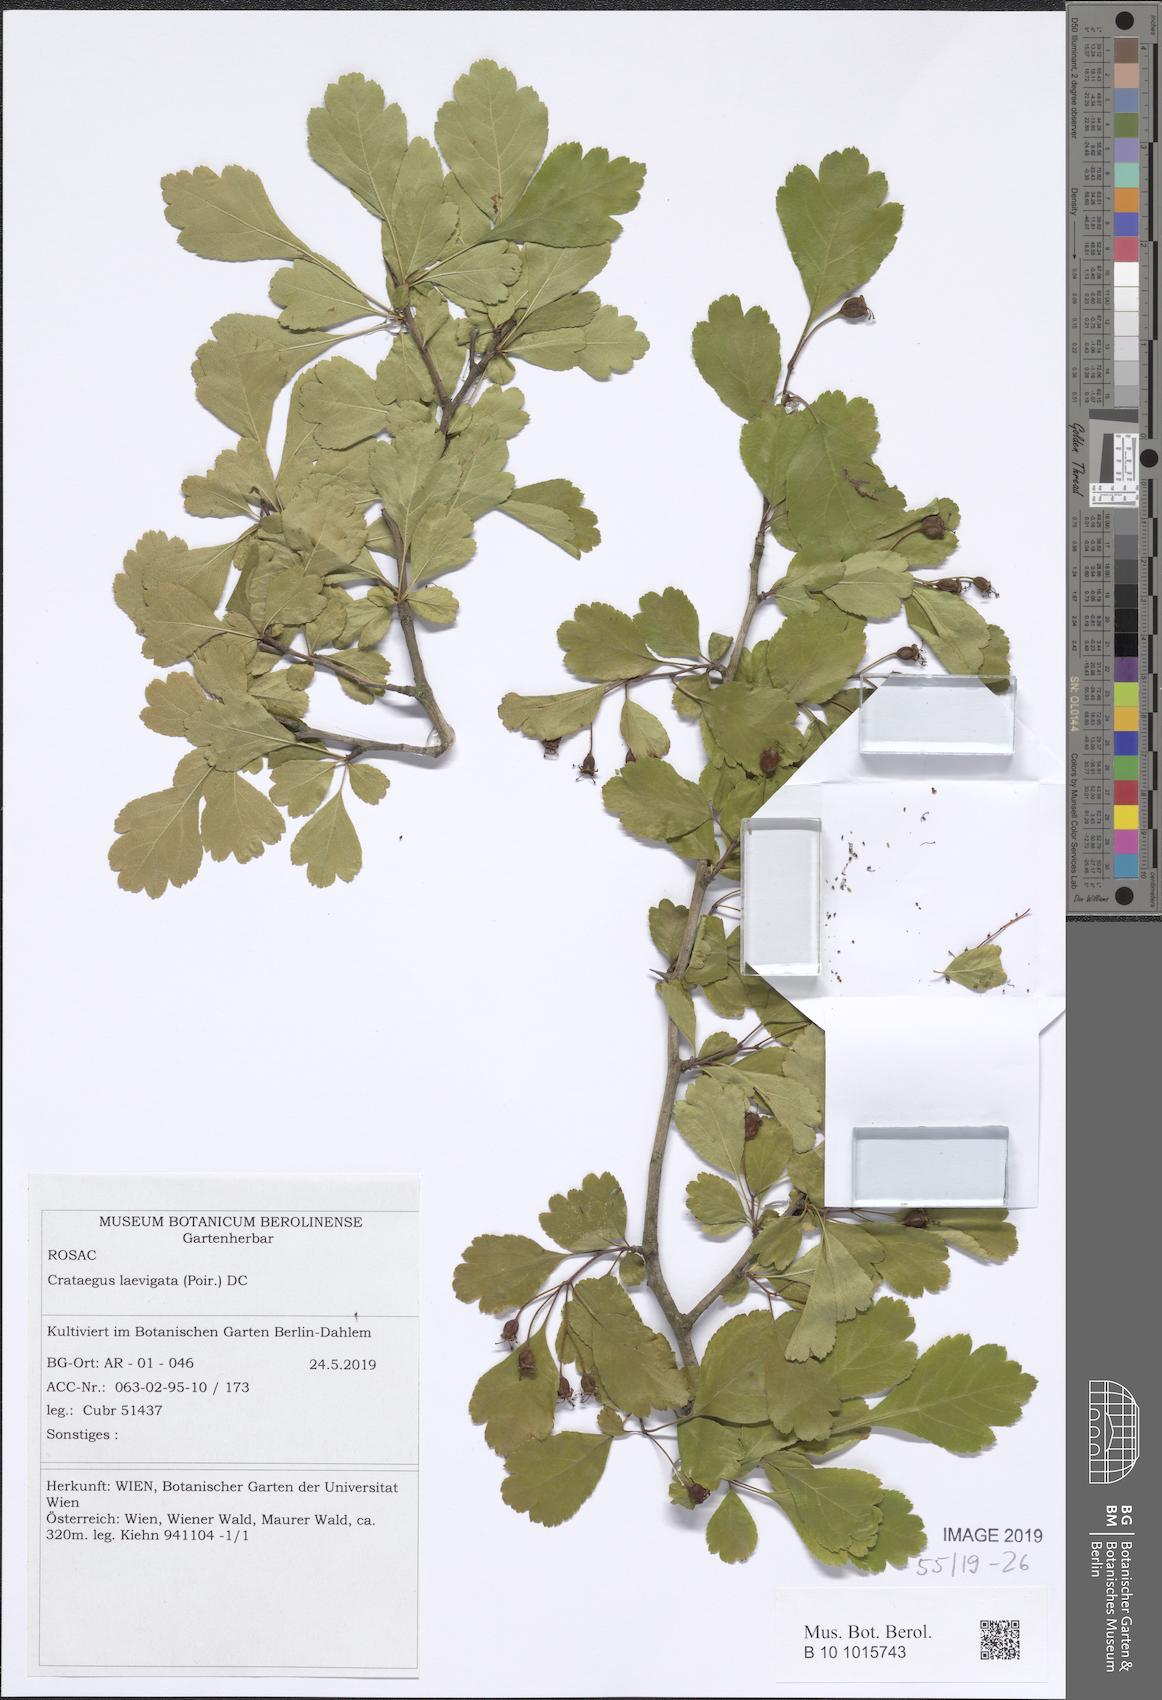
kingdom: Plantae
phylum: Tracheophyta
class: Magnoliopsida
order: Rosales
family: Rosaceae
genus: Crataegus
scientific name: Crataegus laevigata
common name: Midland hawthorn
